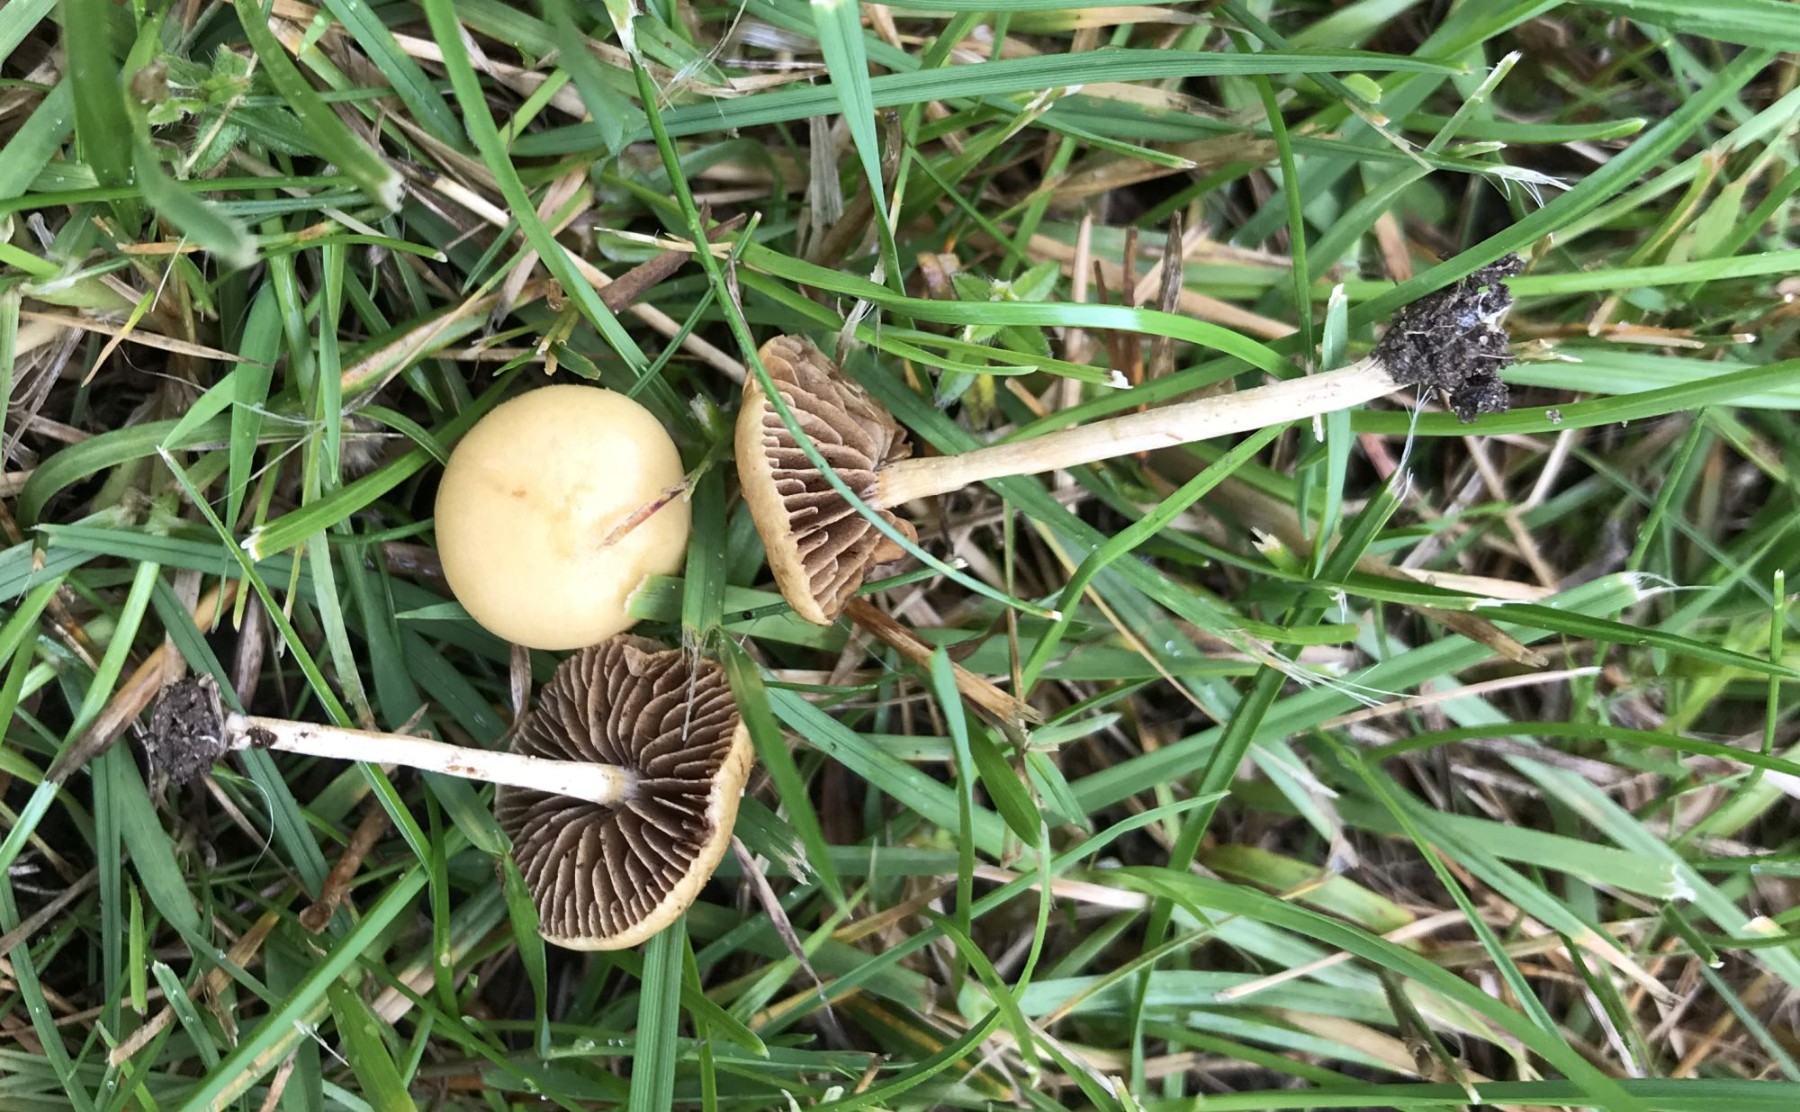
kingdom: Fungi
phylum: Basidiomycota
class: Agaricomycetes
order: Agaricales
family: Strophariaceae
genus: Agrocybe
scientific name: Agrocybe pediades
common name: almindelig agerhat
